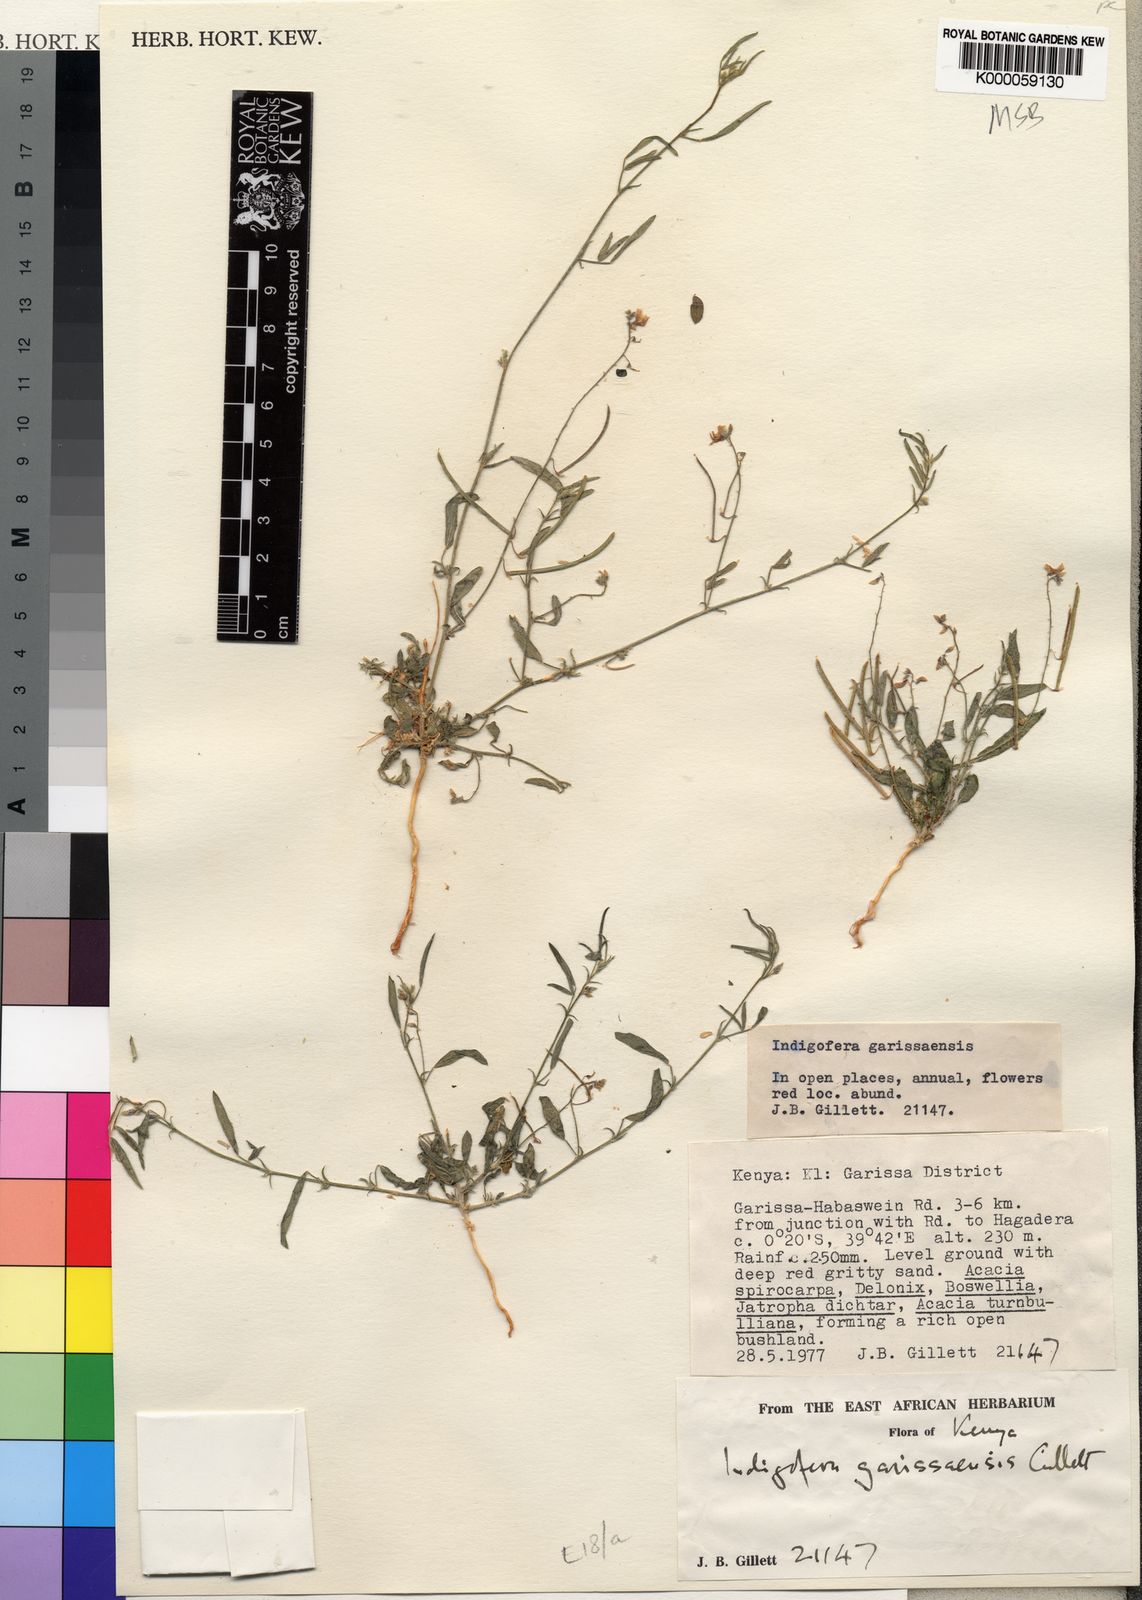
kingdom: Plantae
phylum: Tracheophyta
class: Magnoliopsida
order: Fabales
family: Fabaceae
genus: Microcharis
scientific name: Microcharis garissaensis
